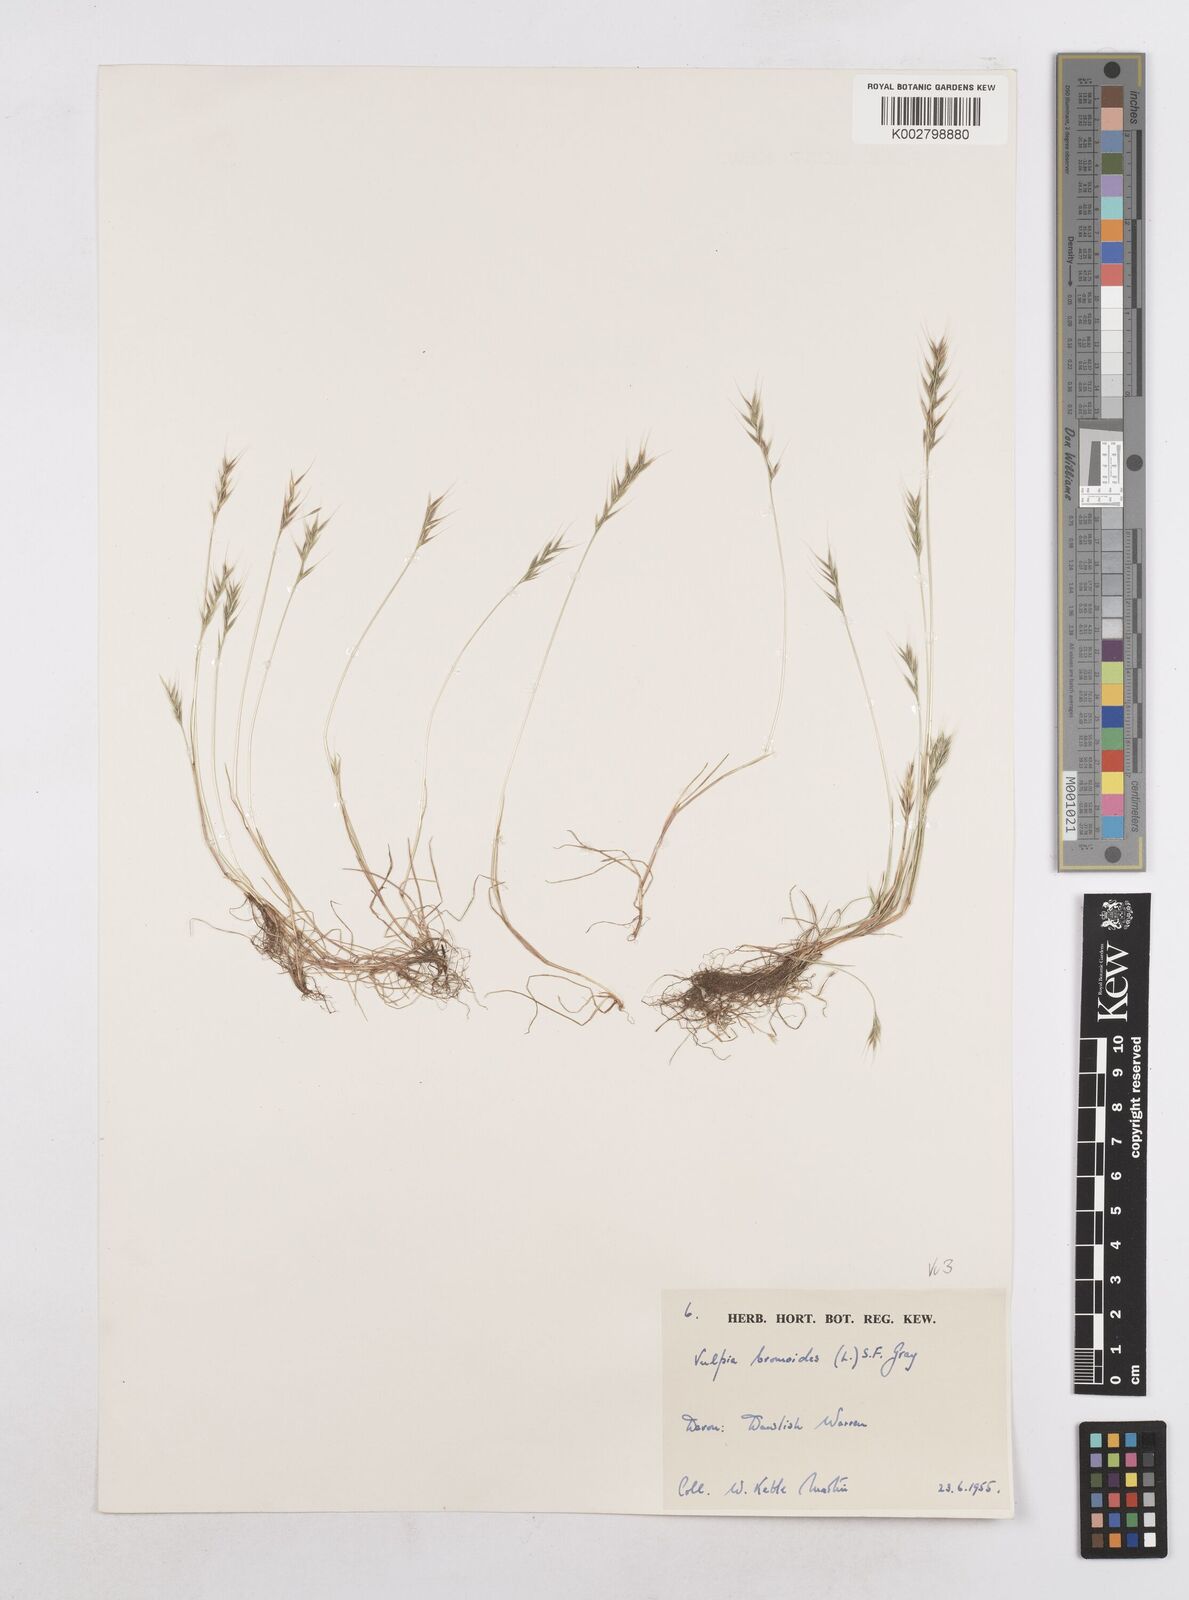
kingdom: Plantae
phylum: Tracheophyta
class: Liliopsida
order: Poales
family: Poaceae
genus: Festuca
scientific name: Festuca bromoides
